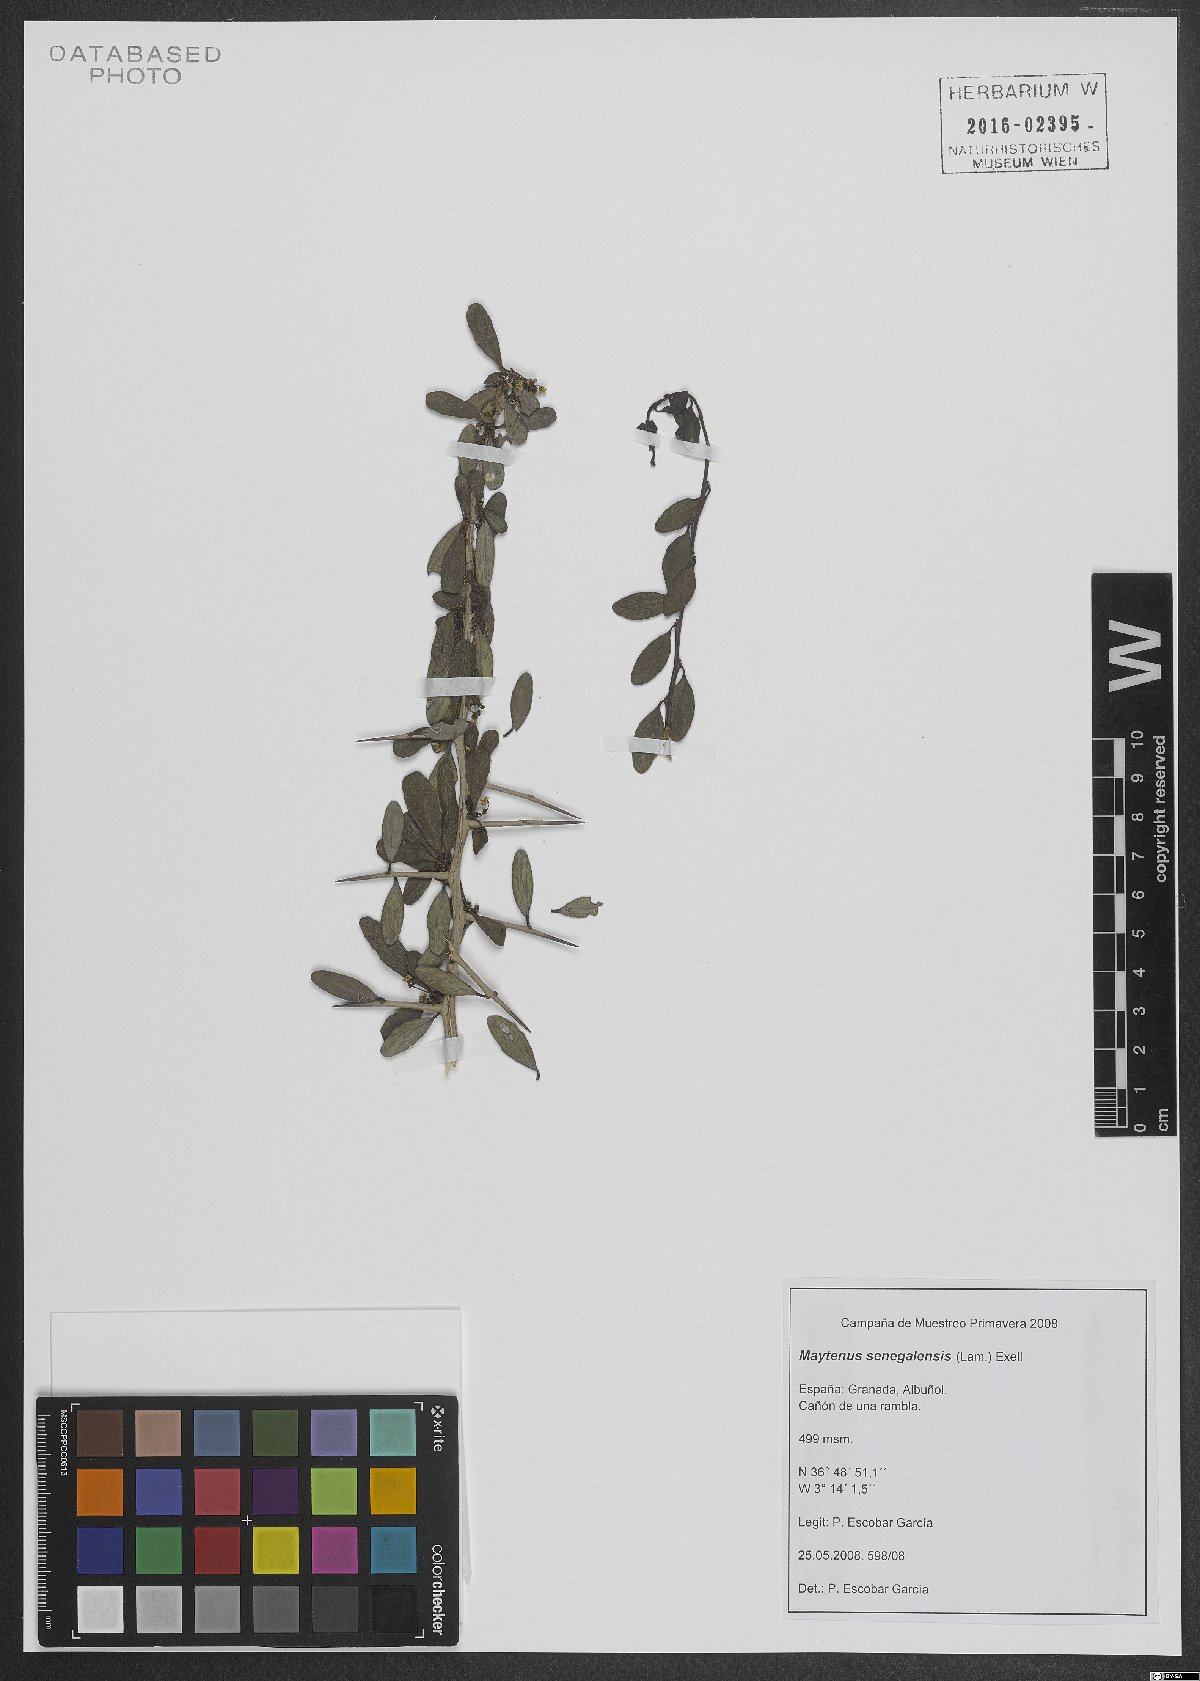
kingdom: Plantae
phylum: Tracheophyta
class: Magnoliopsida
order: Celastrales
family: Celastraceae
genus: Gymnosporia
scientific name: Gymnosporia senegalensis
